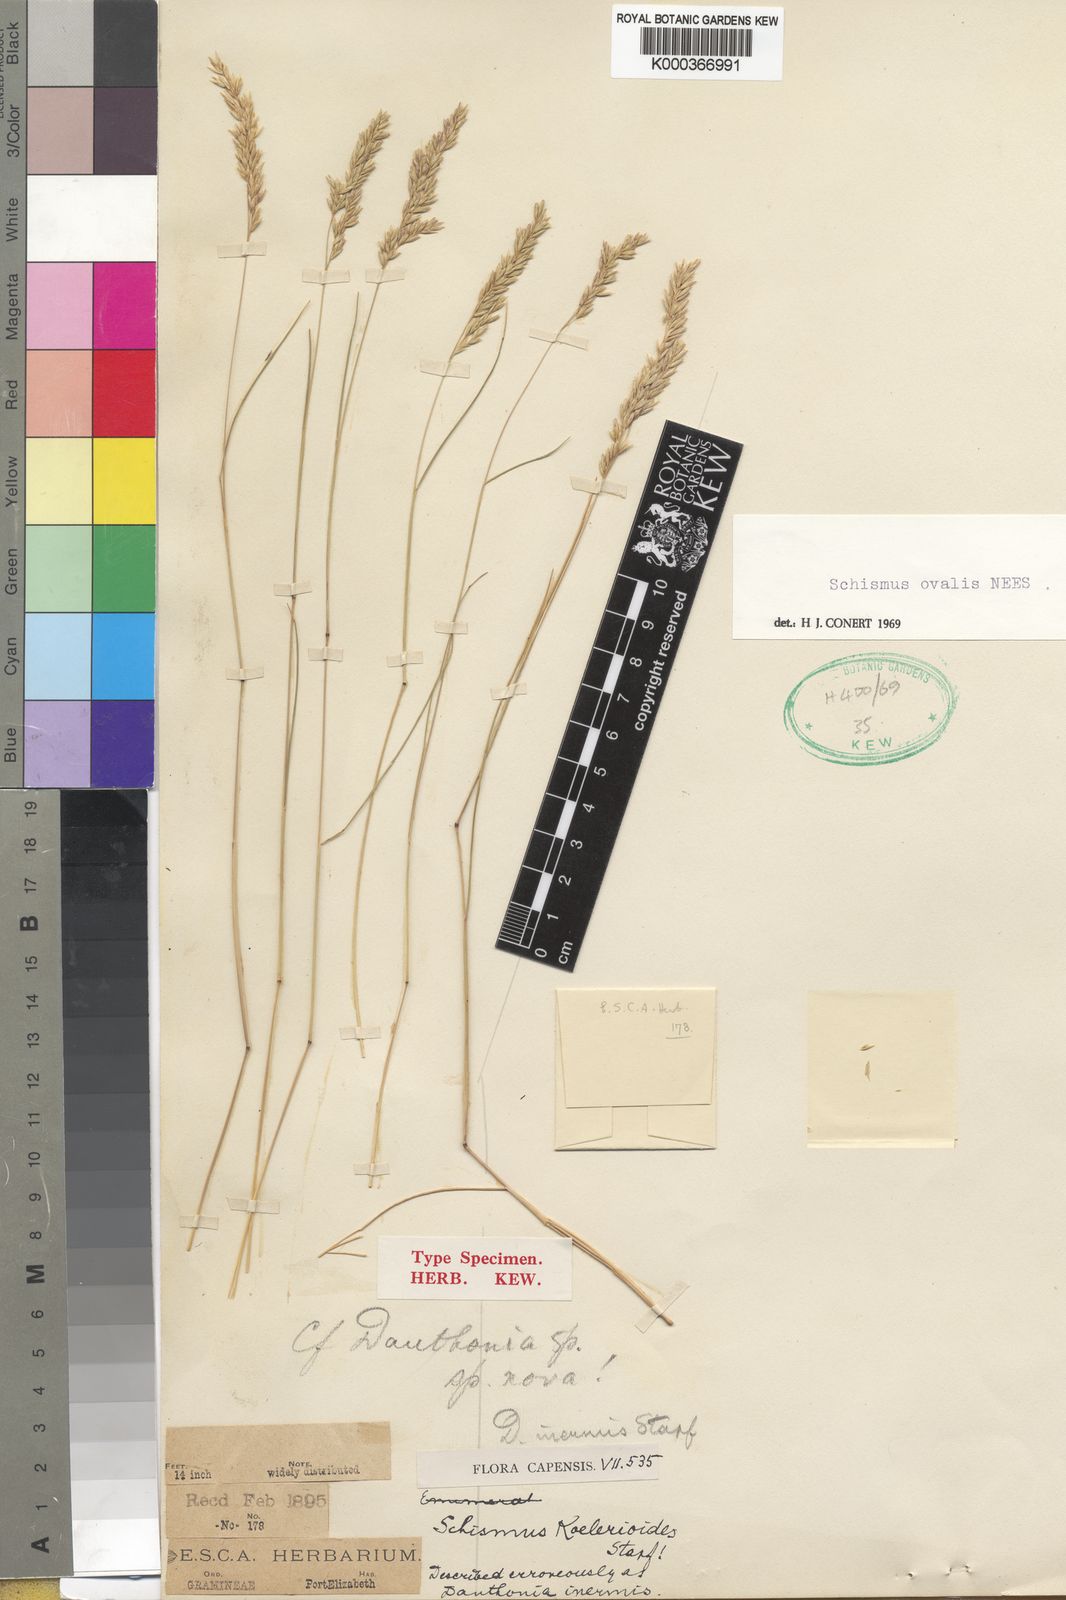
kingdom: Plantae
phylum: Tracheophyta
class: Liliopsida
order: Poales
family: Poaceae
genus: Schismus
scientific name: Schismus inermis
